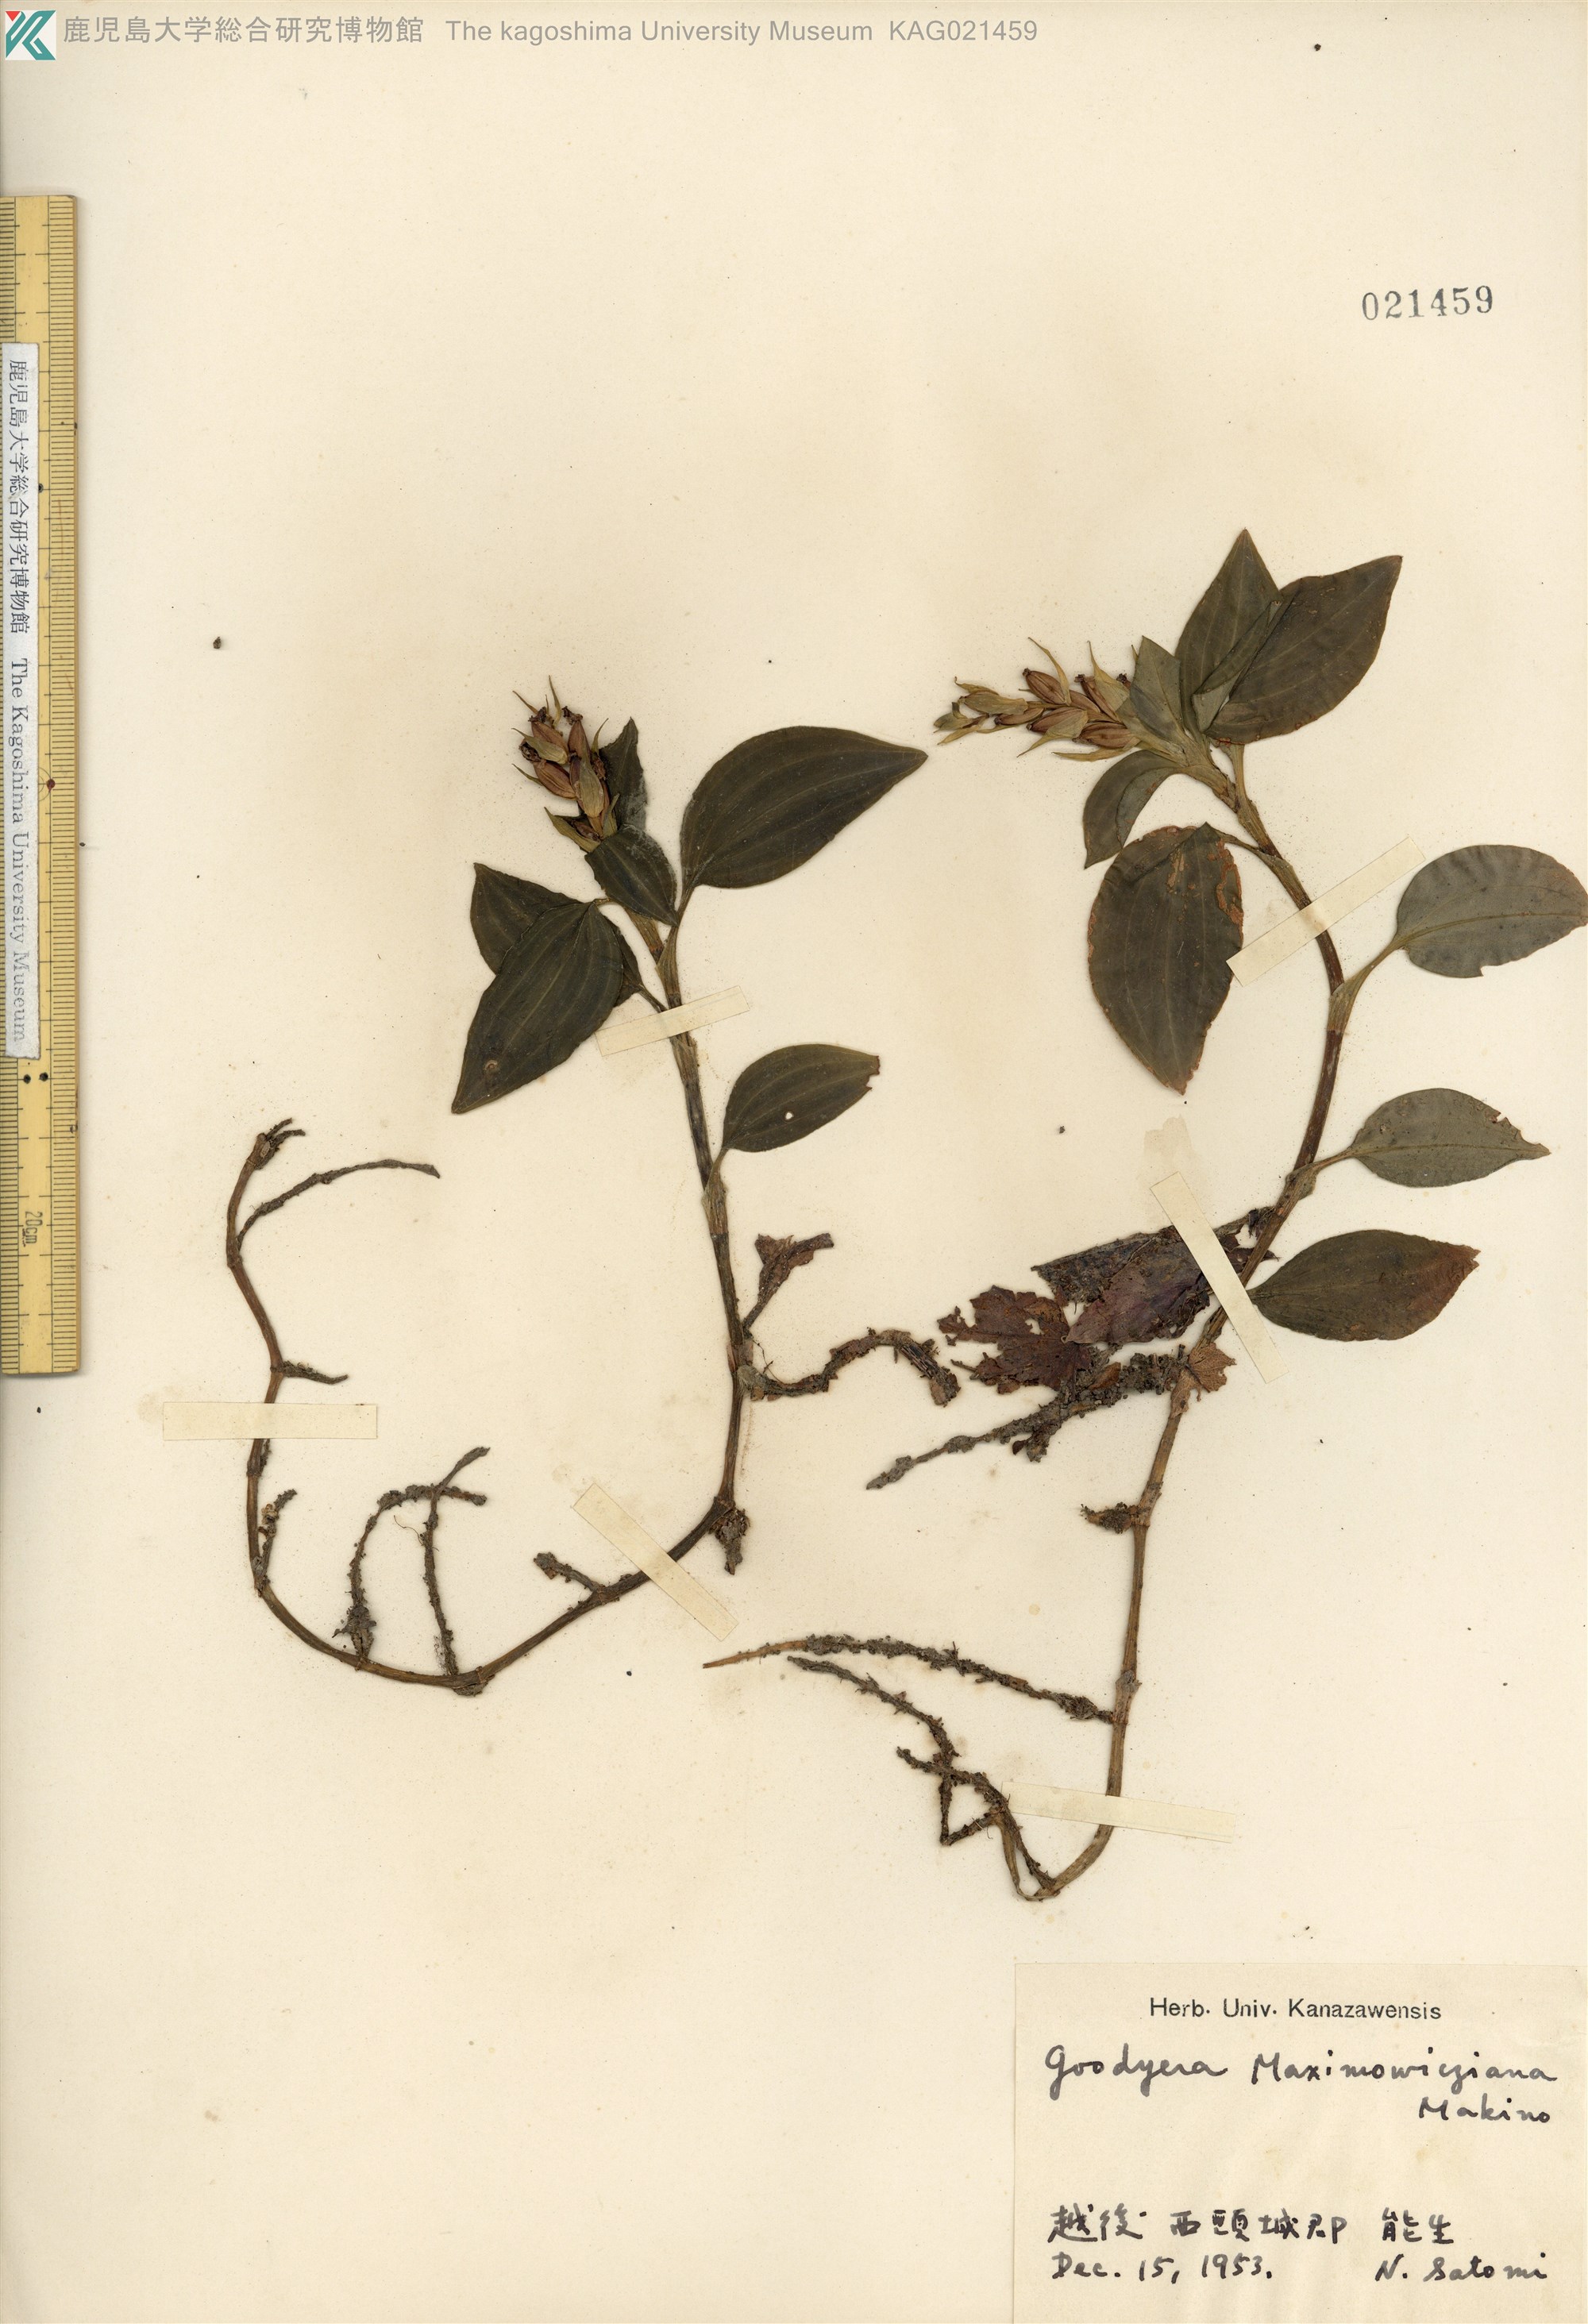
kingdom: Plantae
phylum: Tracheophyta
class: Liliopsida
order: Asparagales
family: Orchidaceae
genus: Goodyera
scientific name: Goodyera henryi
